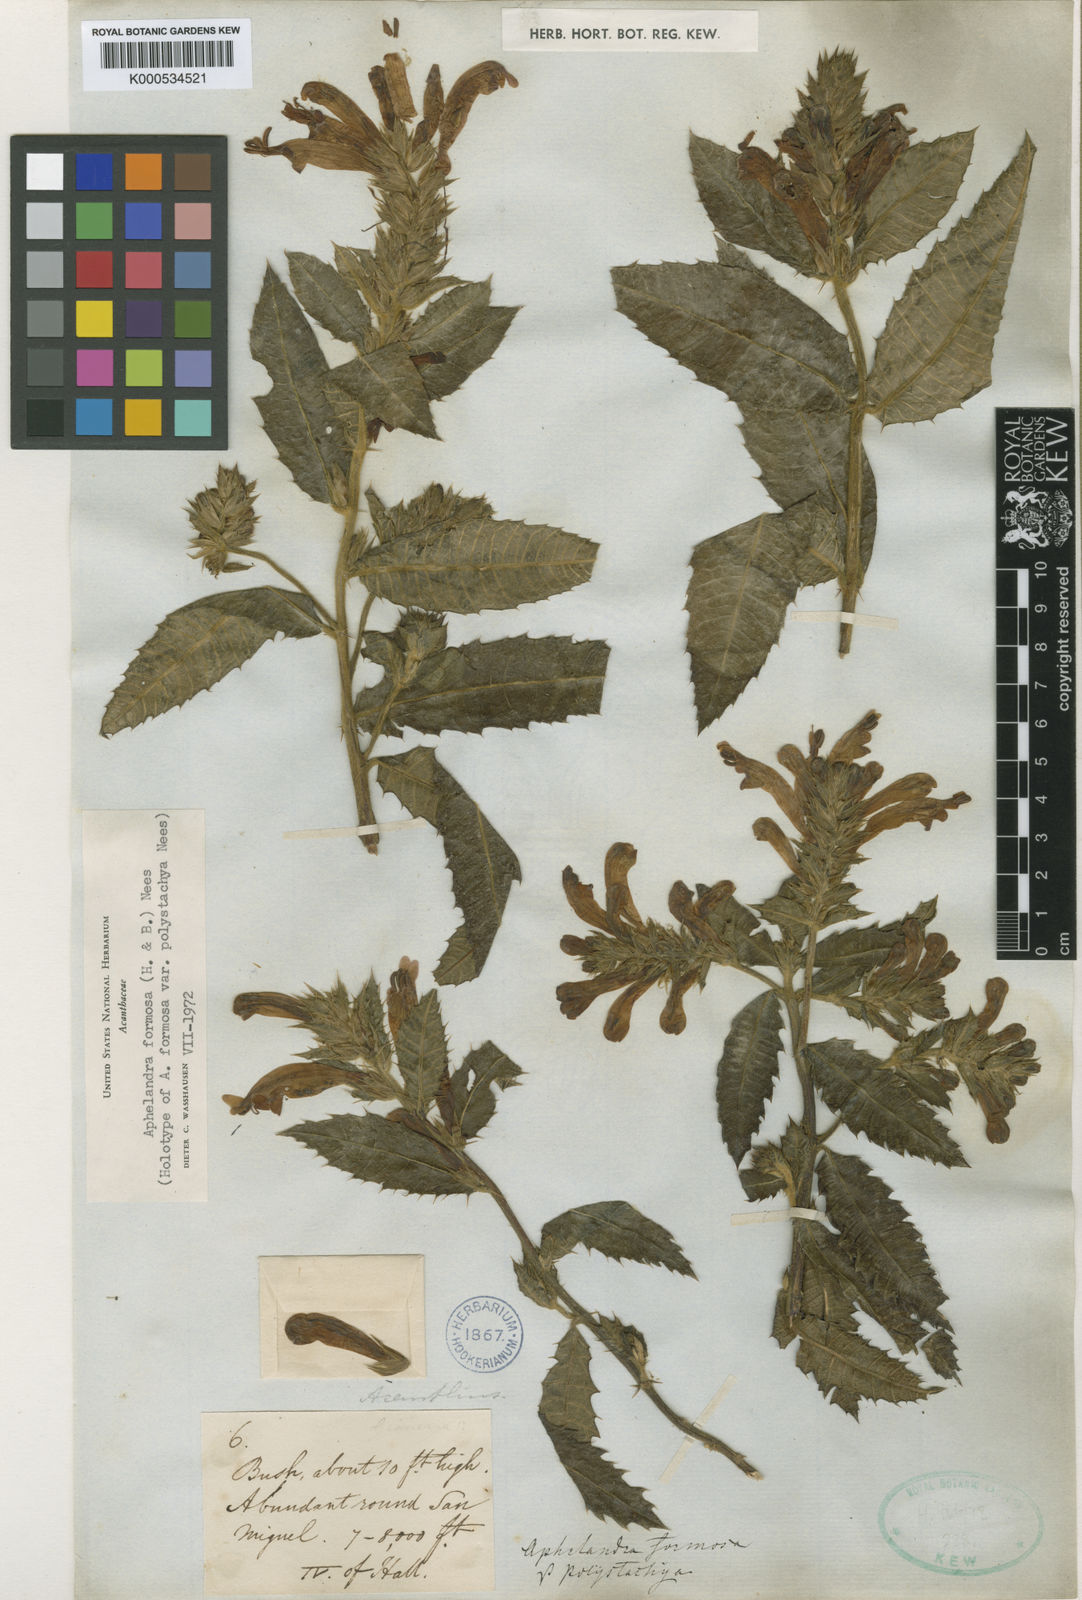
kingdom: Plantae
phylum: Tracheophyta
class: Magnoliopsida
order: Lamiales
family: Acanthaceae
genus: Aphelandra
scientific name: Aphelandra formosa
